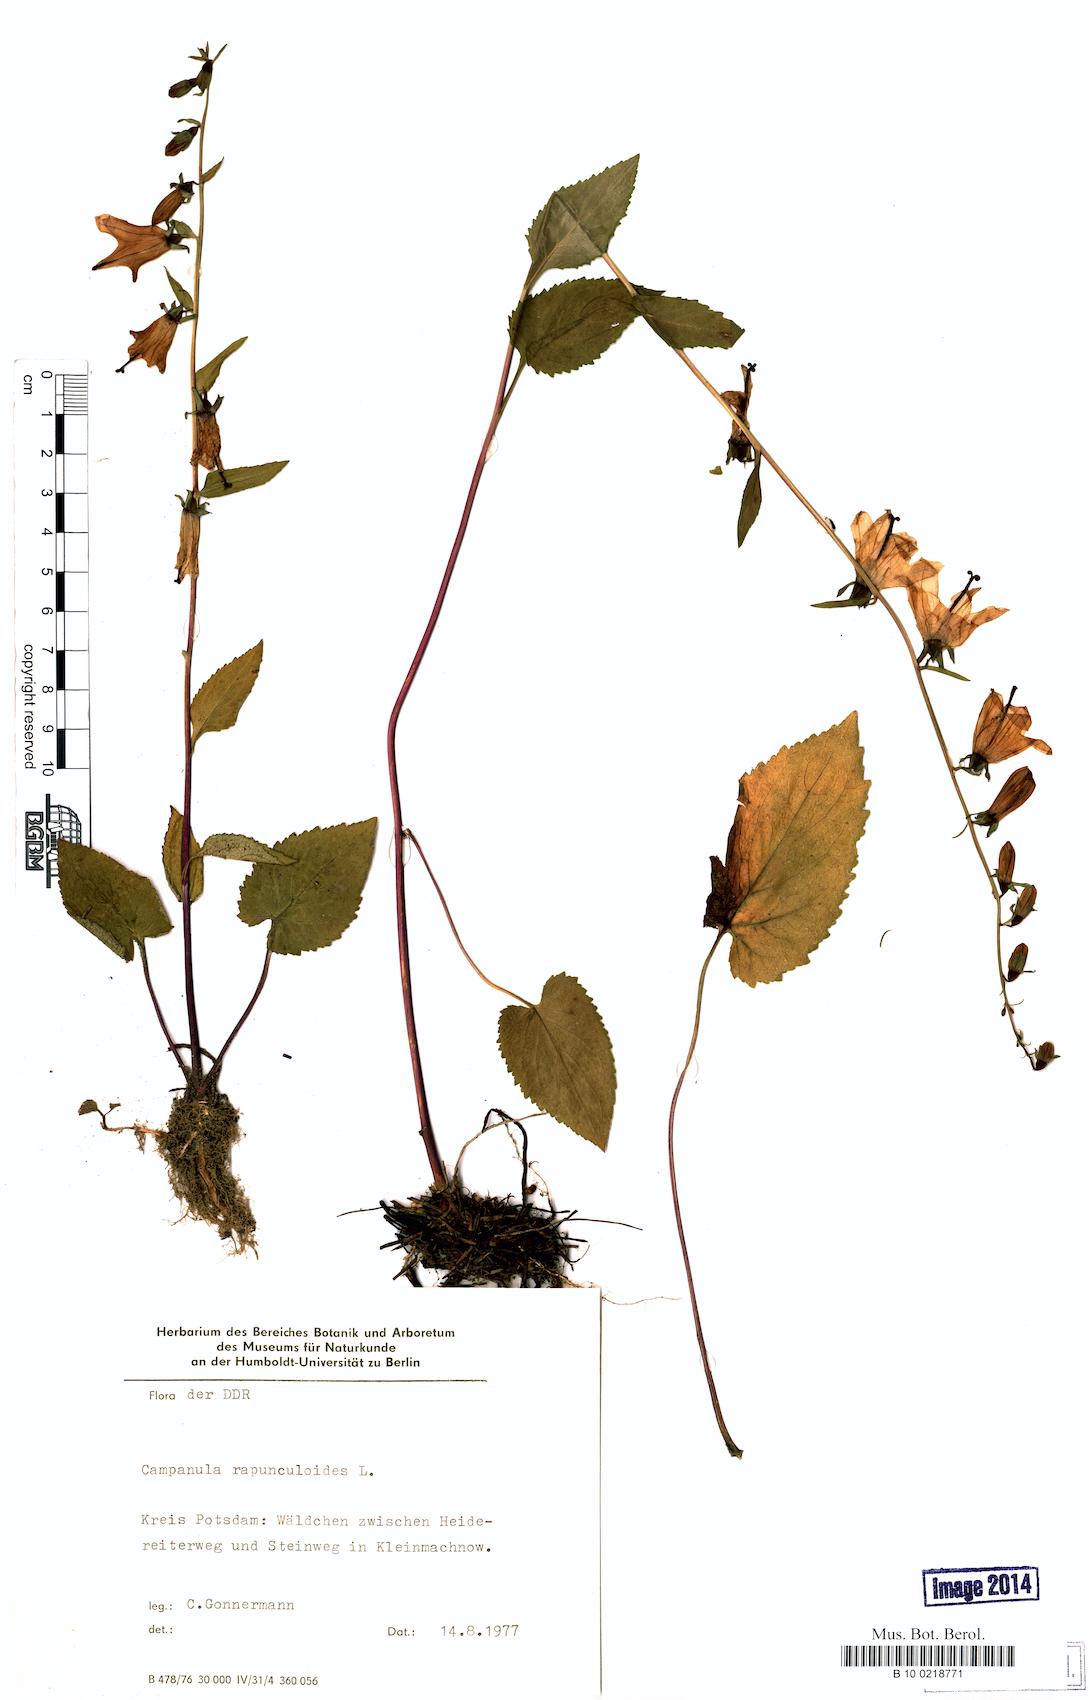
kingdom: Plantae
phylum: Tracheophyta
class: Magnoliopsida
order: Asterales
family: Campanulaceae
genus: Campanula
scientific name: Campanula rapunculoides
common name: Creeping bellflower
